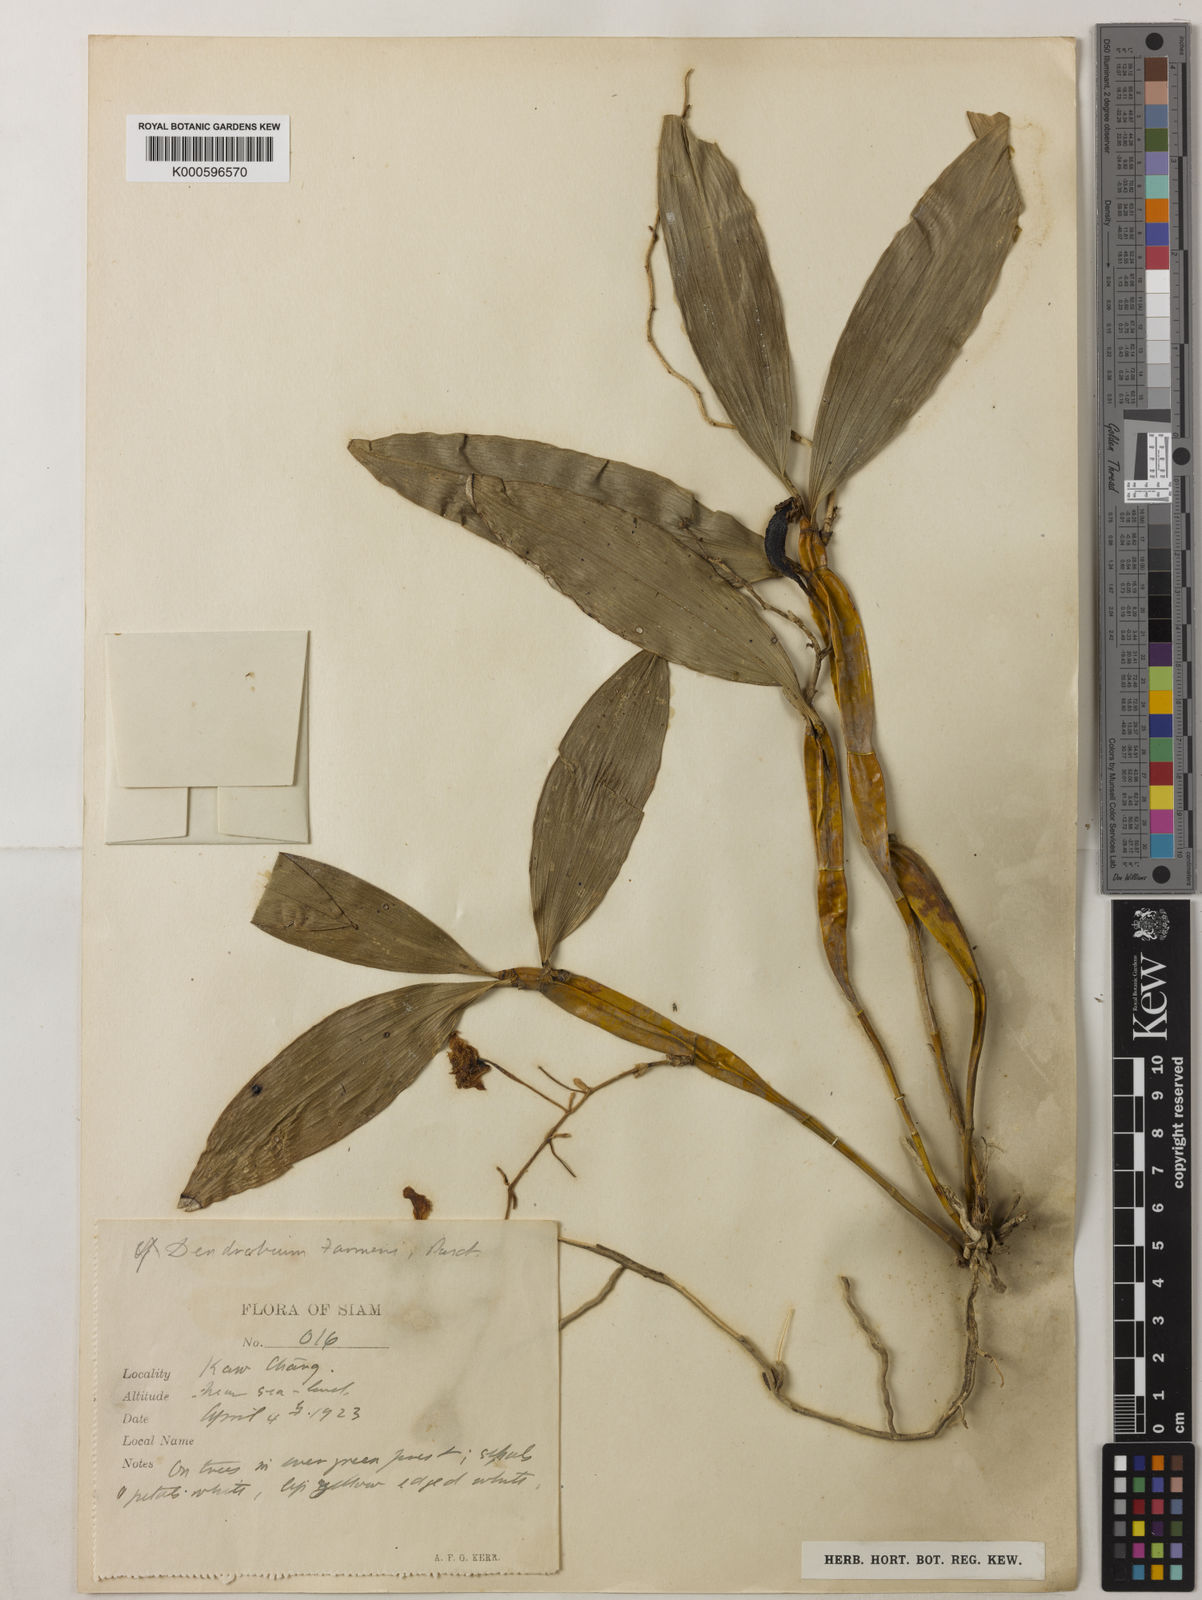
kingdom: Plantae
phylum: Tracheophyta
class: Liliopsida
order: Asparagales
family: Orchidaceae
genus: Dendrobium
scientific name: Dendrobium farmeri
